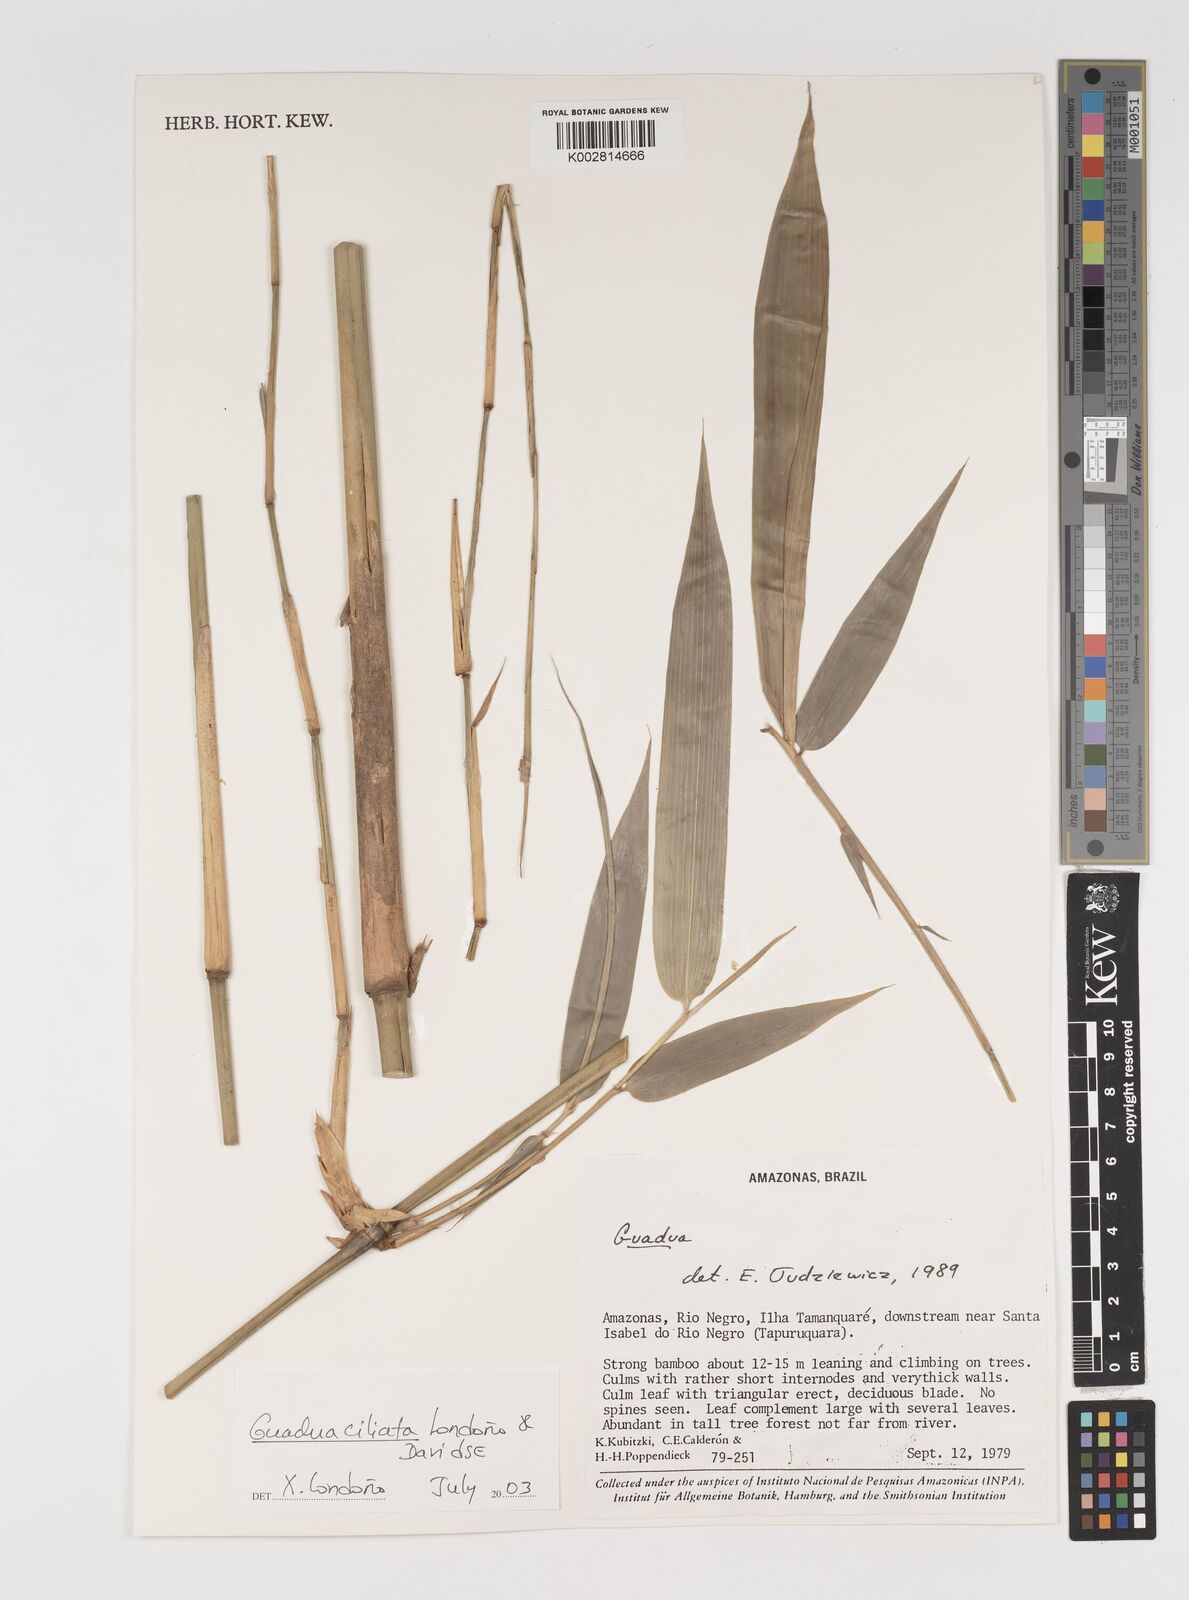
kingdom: Plantae
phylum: Tracheophyta
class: Liliopsida
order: Poales
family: Poaceae
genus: Guadua
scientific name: Guadua ciliata
